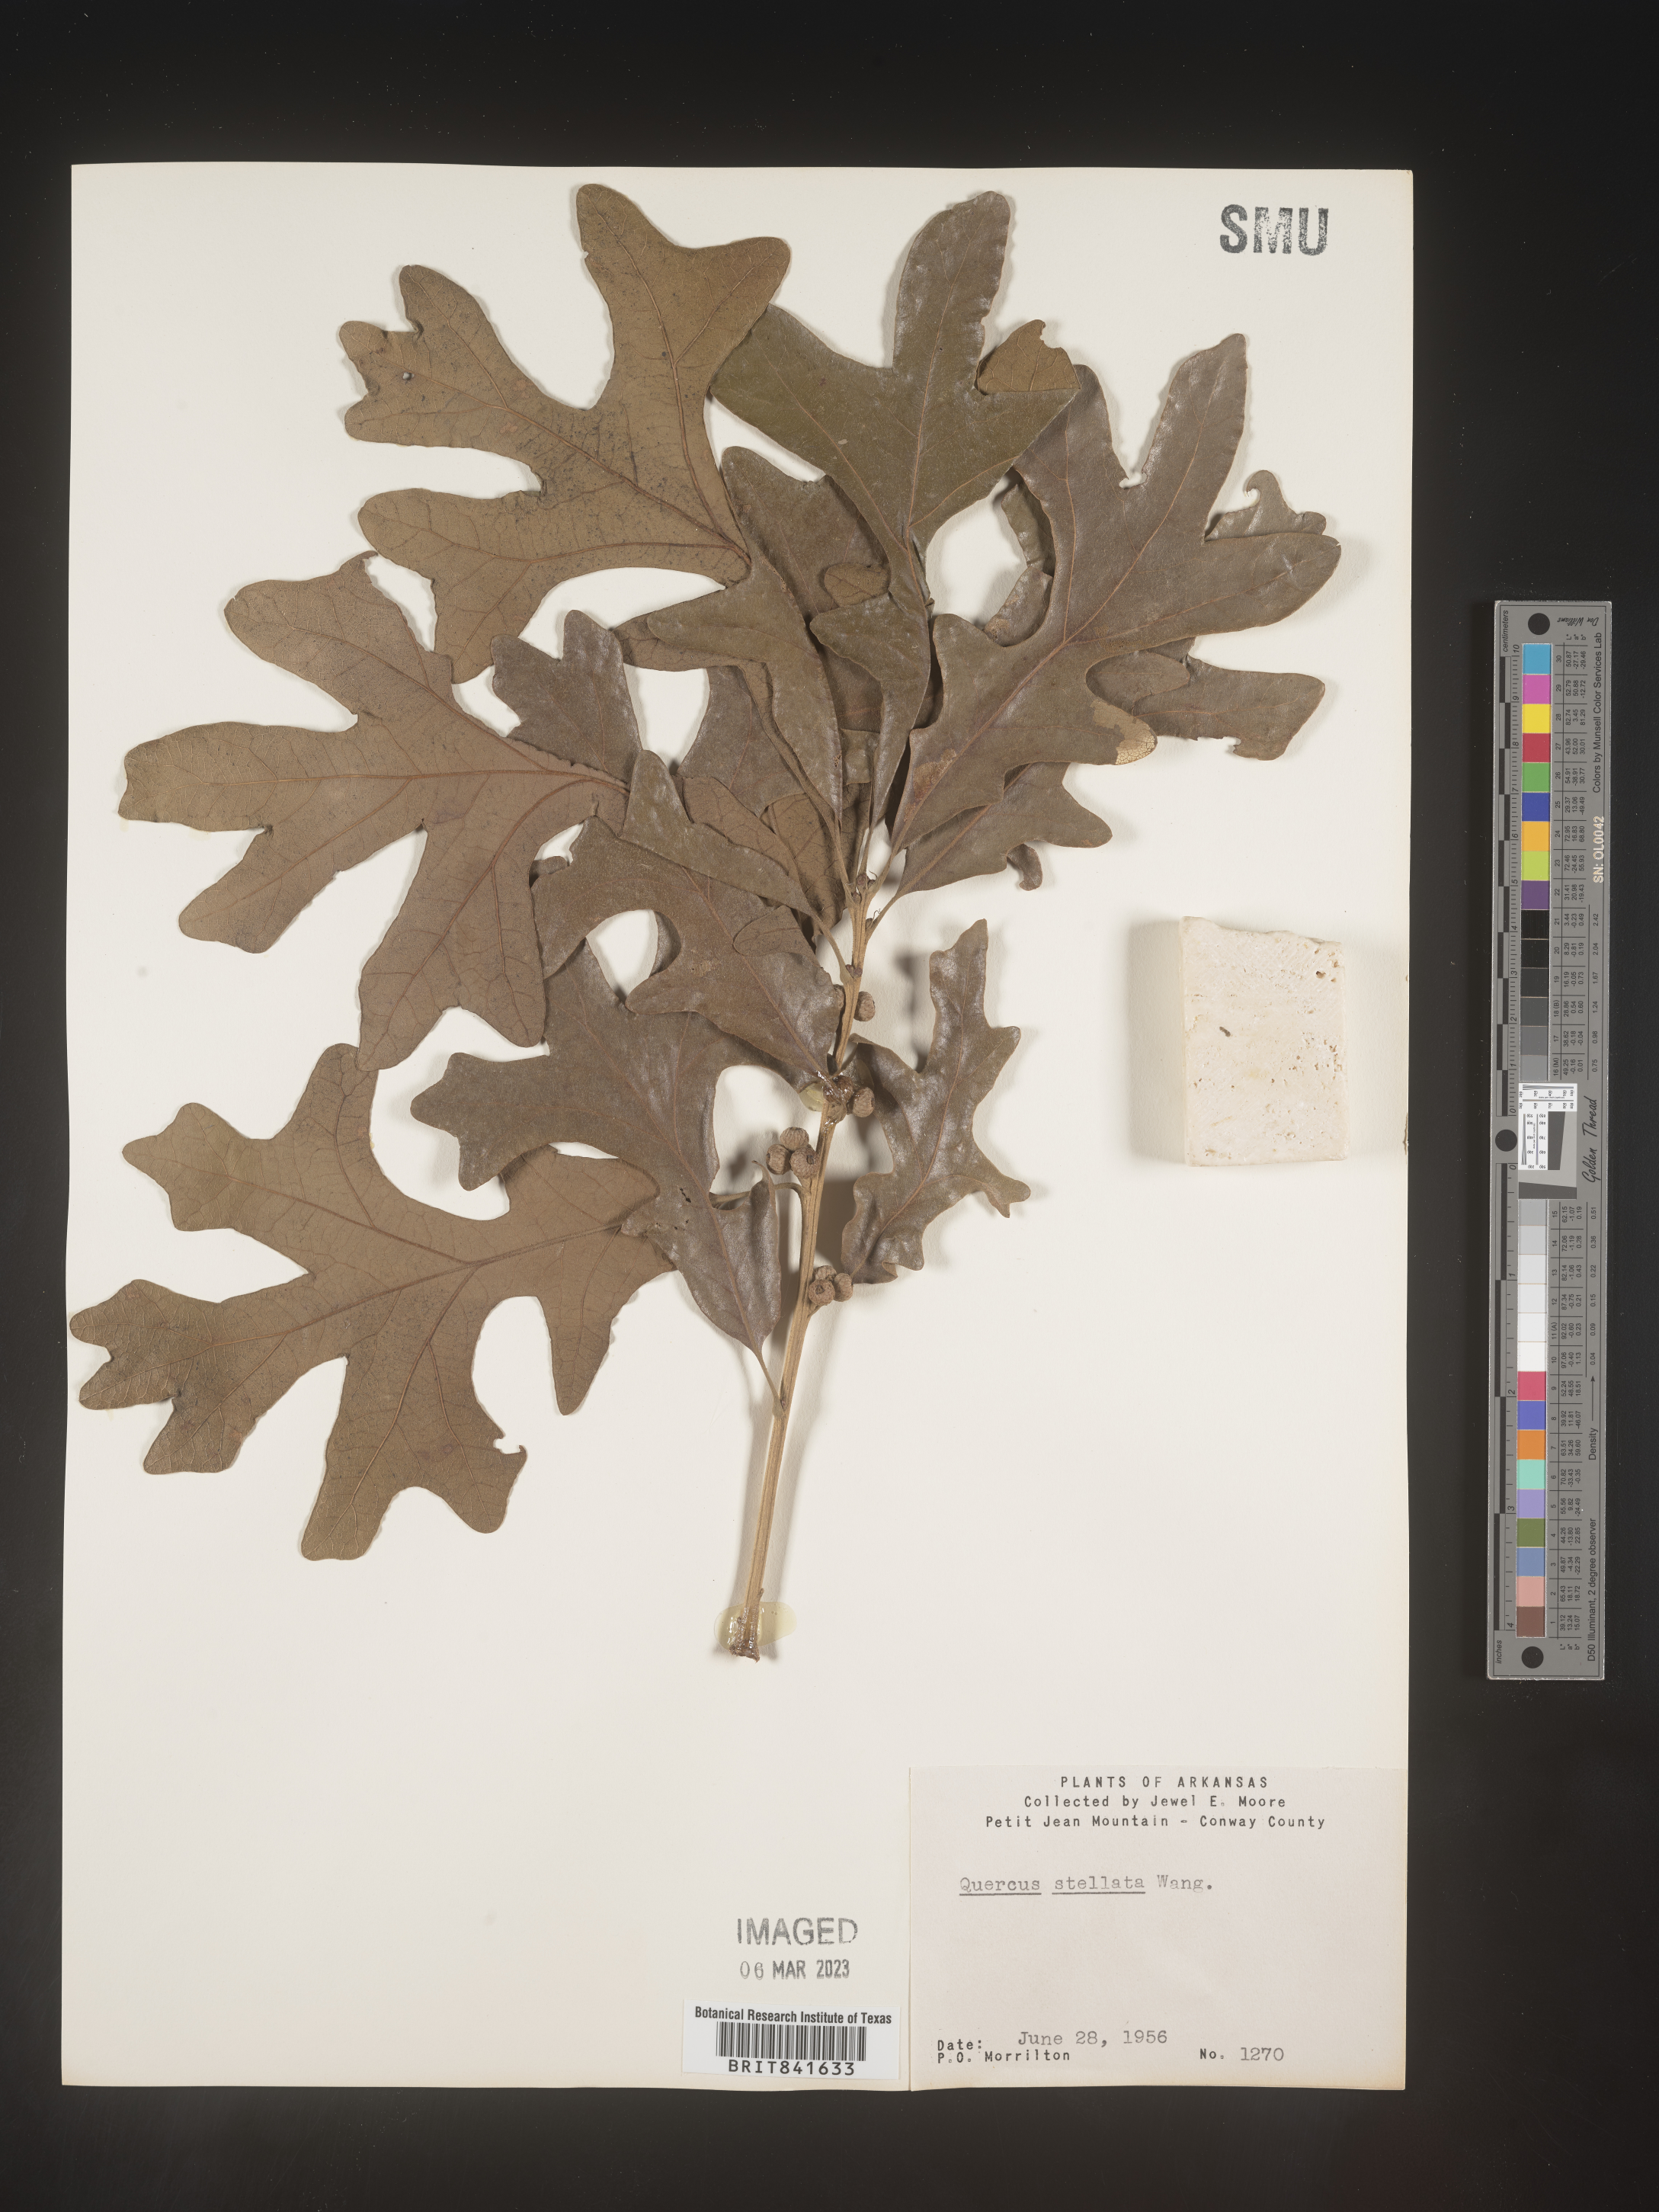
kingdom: Plantae
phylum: Tracheophyta
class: Magnoliopsida
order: Fagales
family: Fagaceae
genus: Quercus
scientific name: Quercus stellata
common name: Post oak
